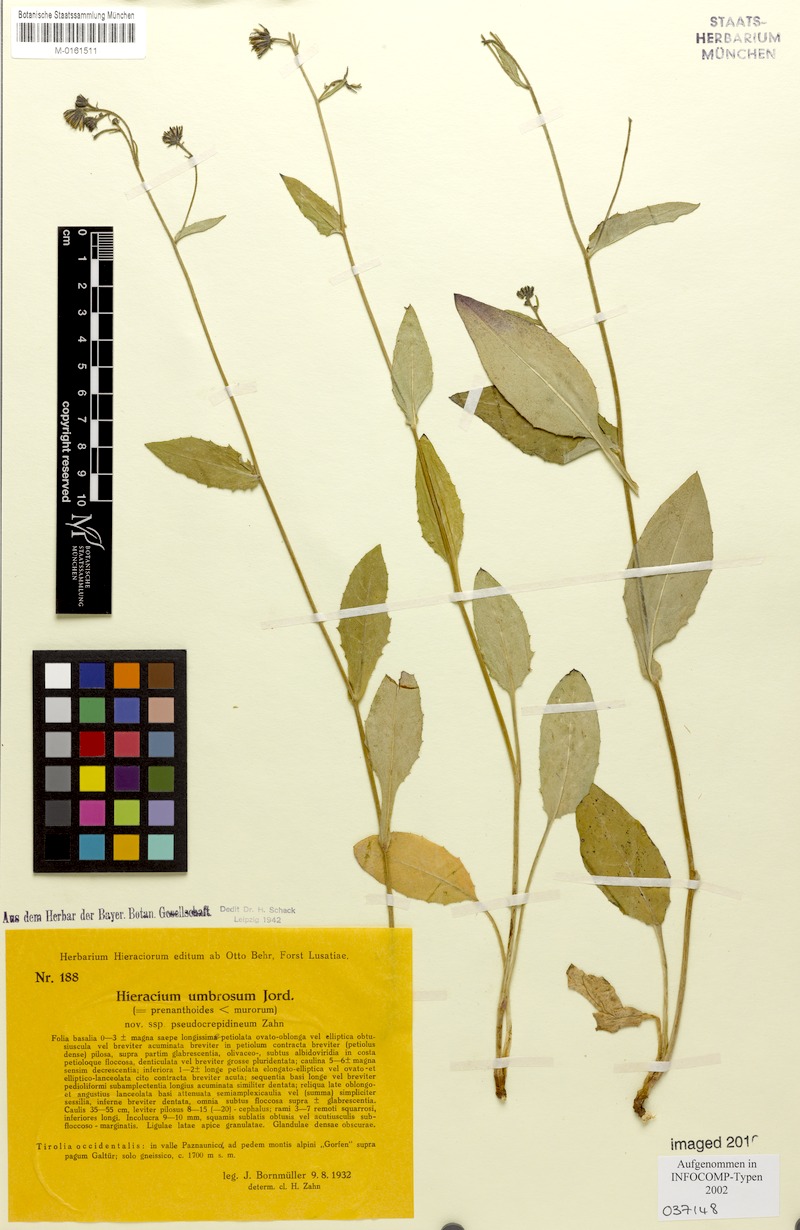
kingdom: Plantae
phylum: Tracheophyta
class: Magnoliopsida
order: Asterales
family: Asteraceae
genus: Hieracium
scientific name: Hieracium umbrosum
